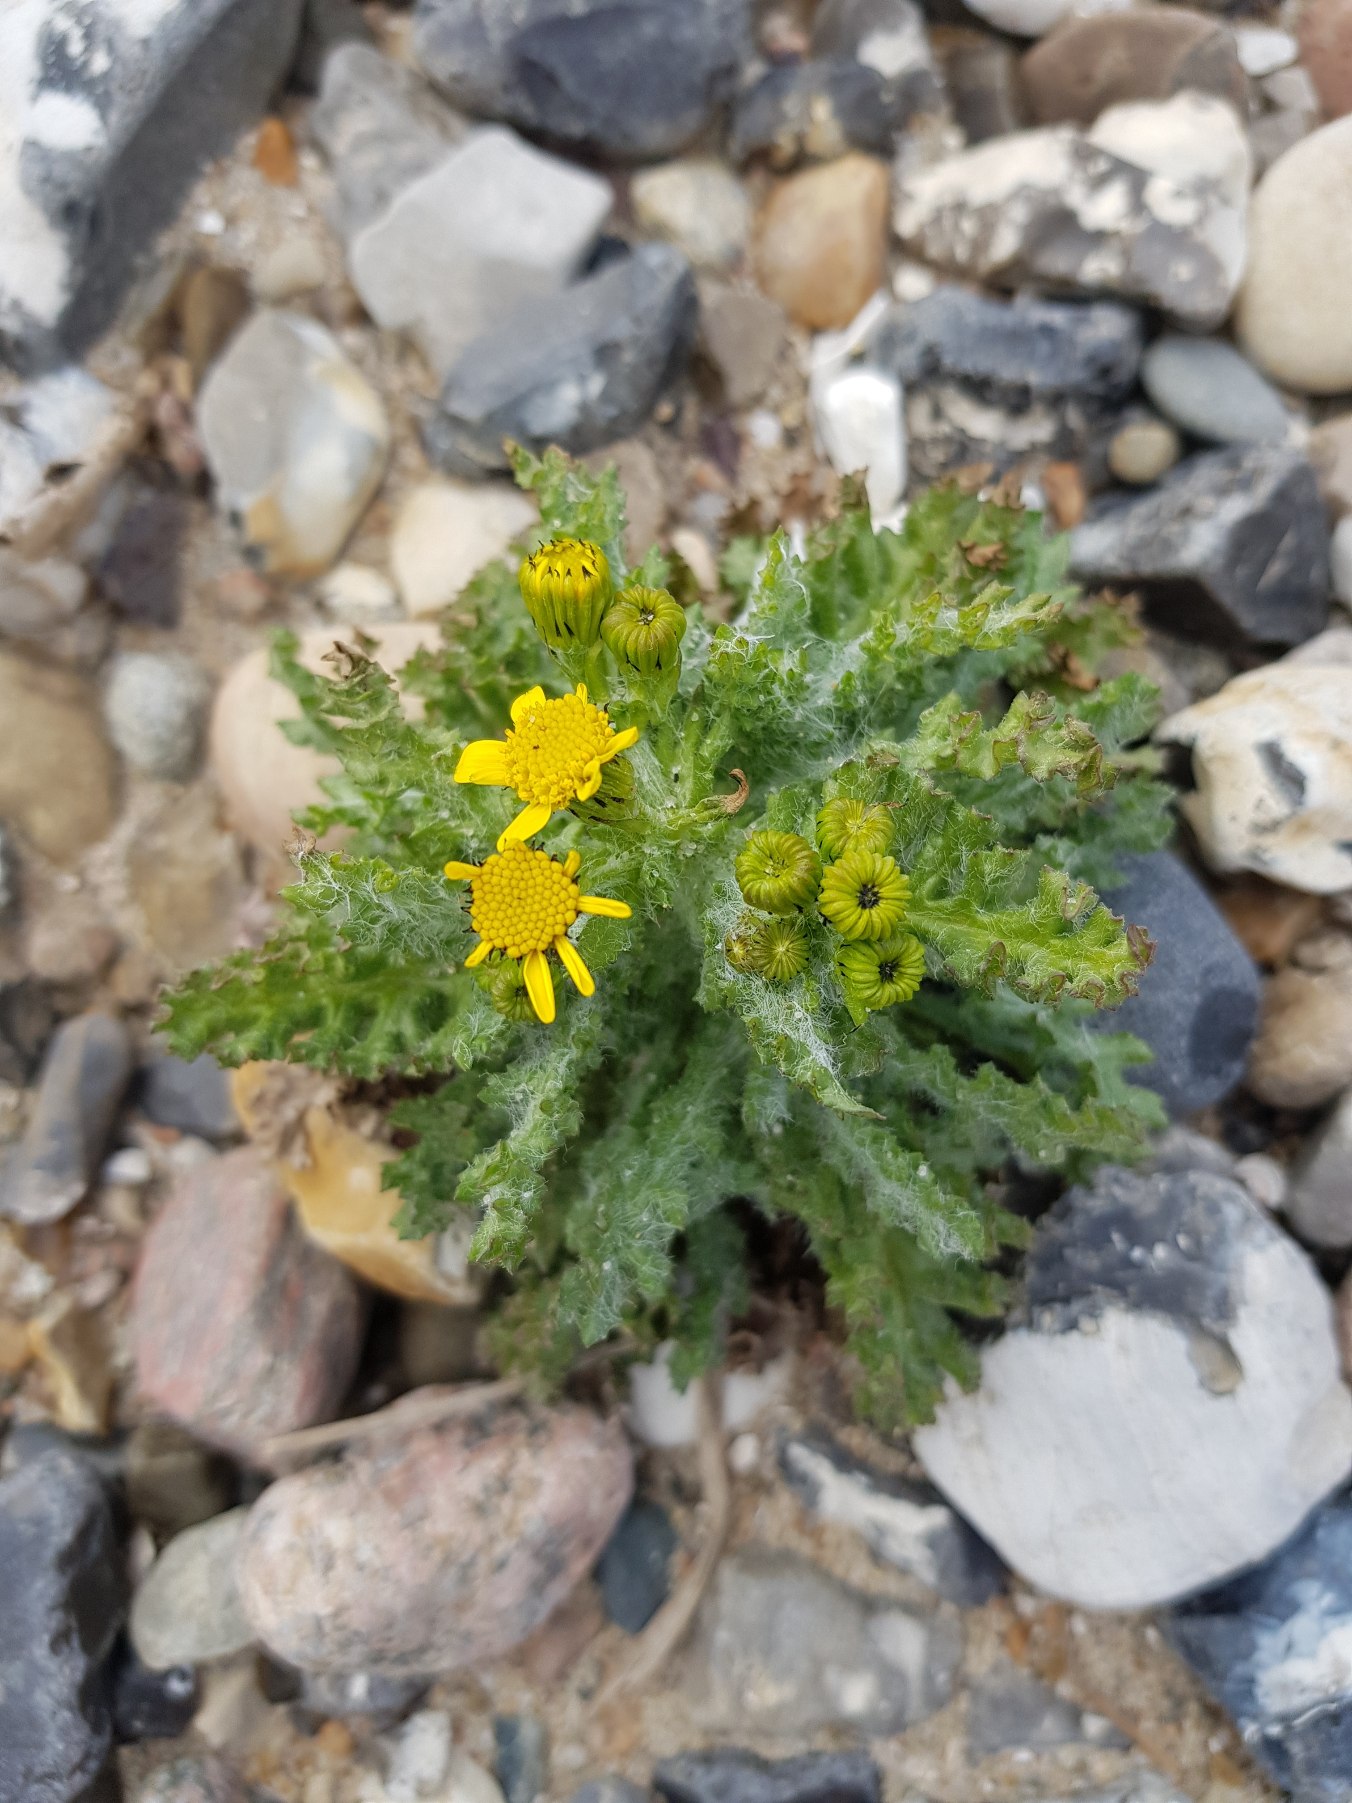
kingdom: Plantae
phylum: Tracheophyta
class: Magnoliopsida
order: Asterales
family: Asteraceae
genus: Senecio
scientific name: Senecio leucanthemifolius
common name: Vår-brandbæger
